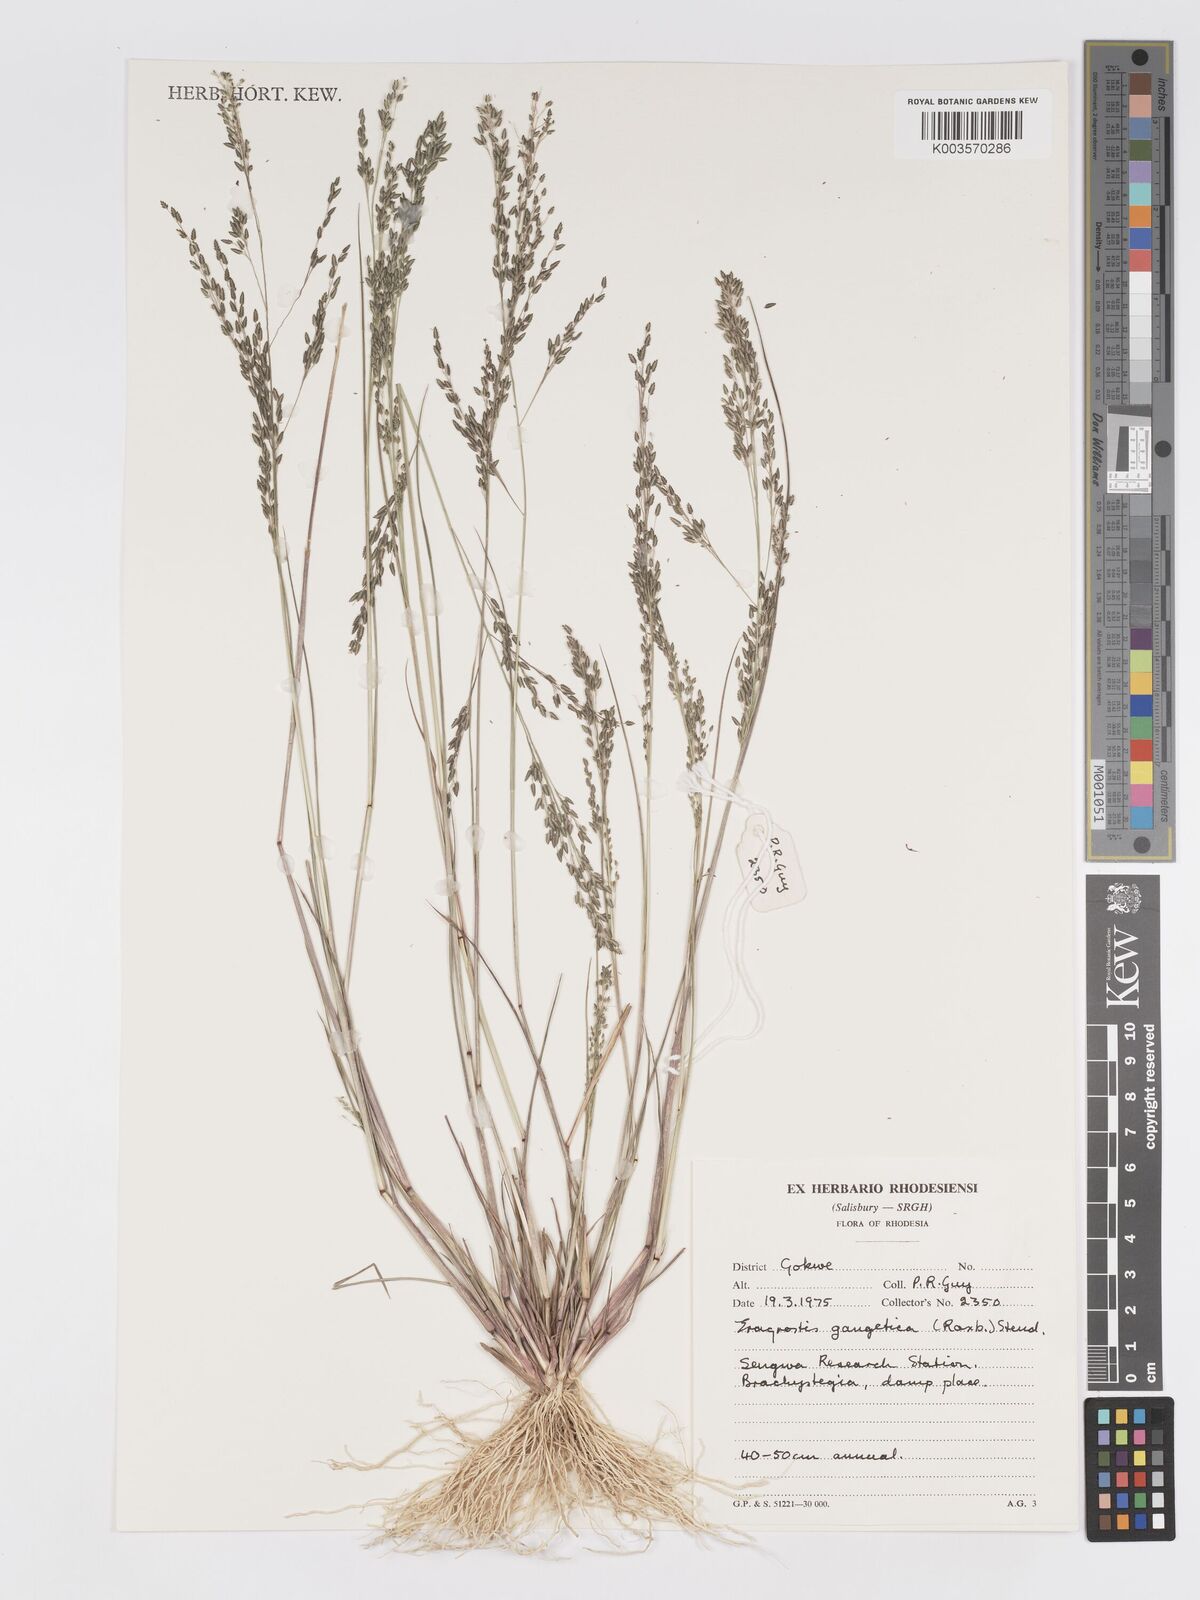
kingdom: Plantae
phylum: Tracheophyta
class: Liliopsida
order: Poales
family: Poaceae
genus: Eragrostis
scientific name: Eragrostis gangetica
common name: Slimflower lovegrass
